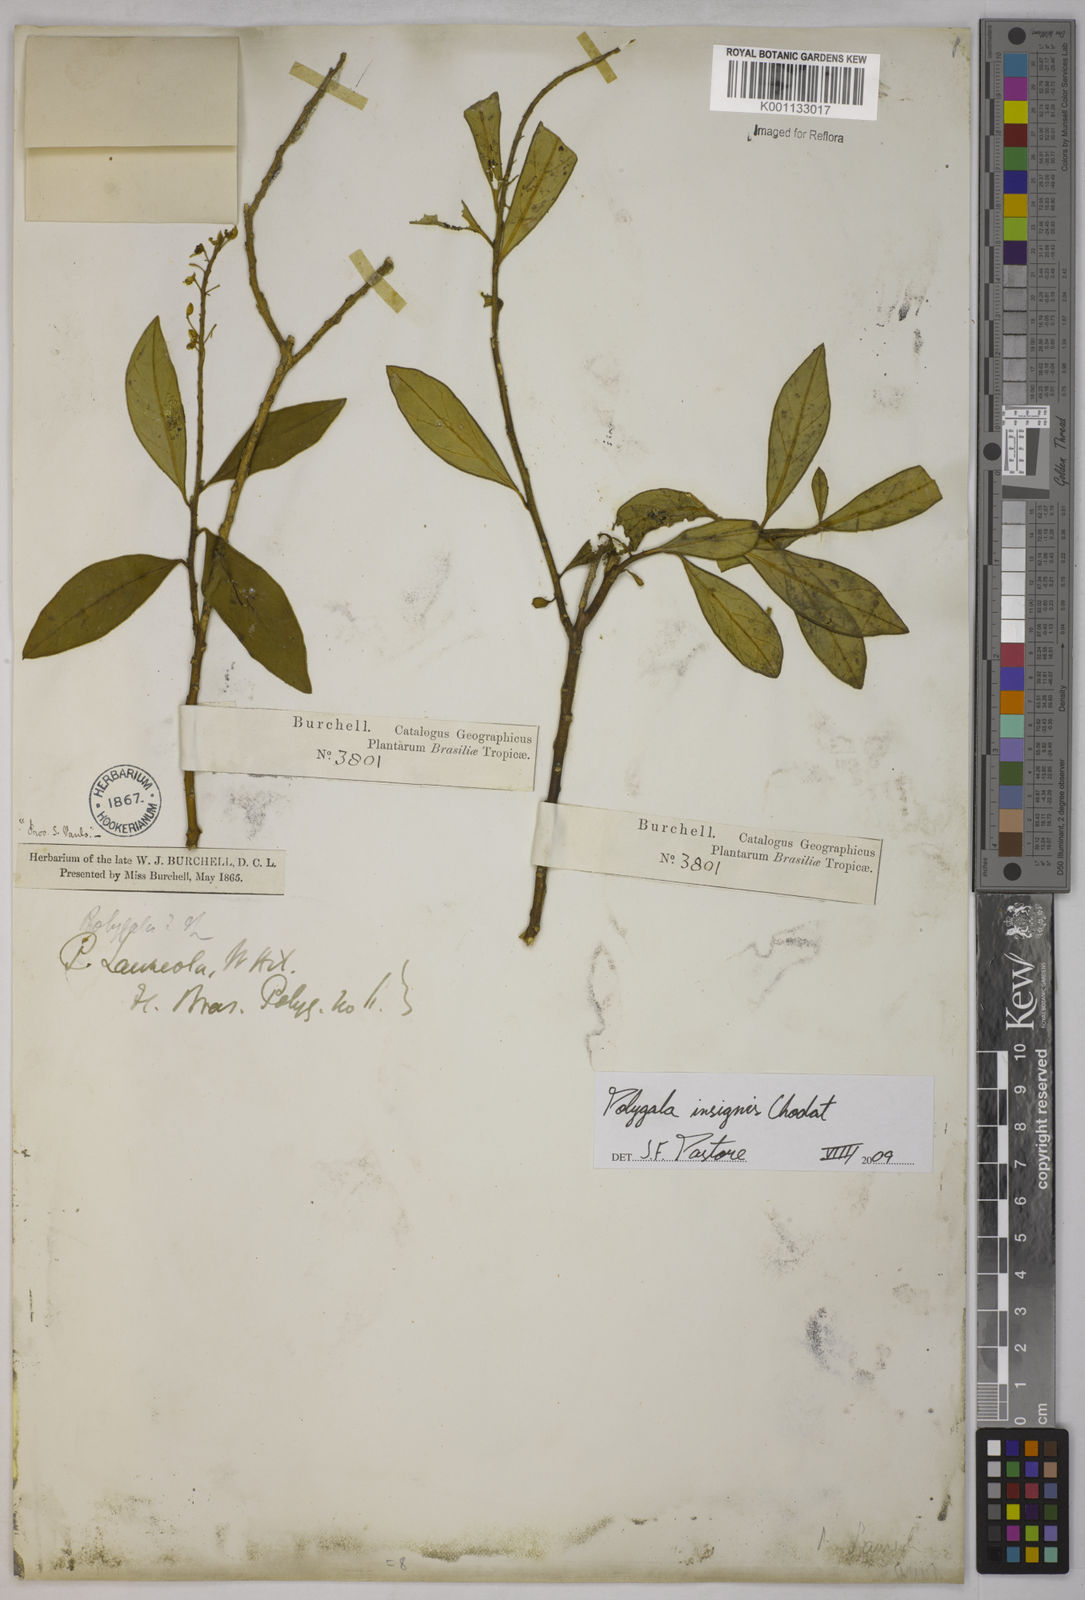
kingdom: Plantae
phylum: Tracheophyta
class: Magnoliopsida
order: Fabales
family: Polygalaceae
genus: Caamembeca
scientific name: Caamembeca insignis
